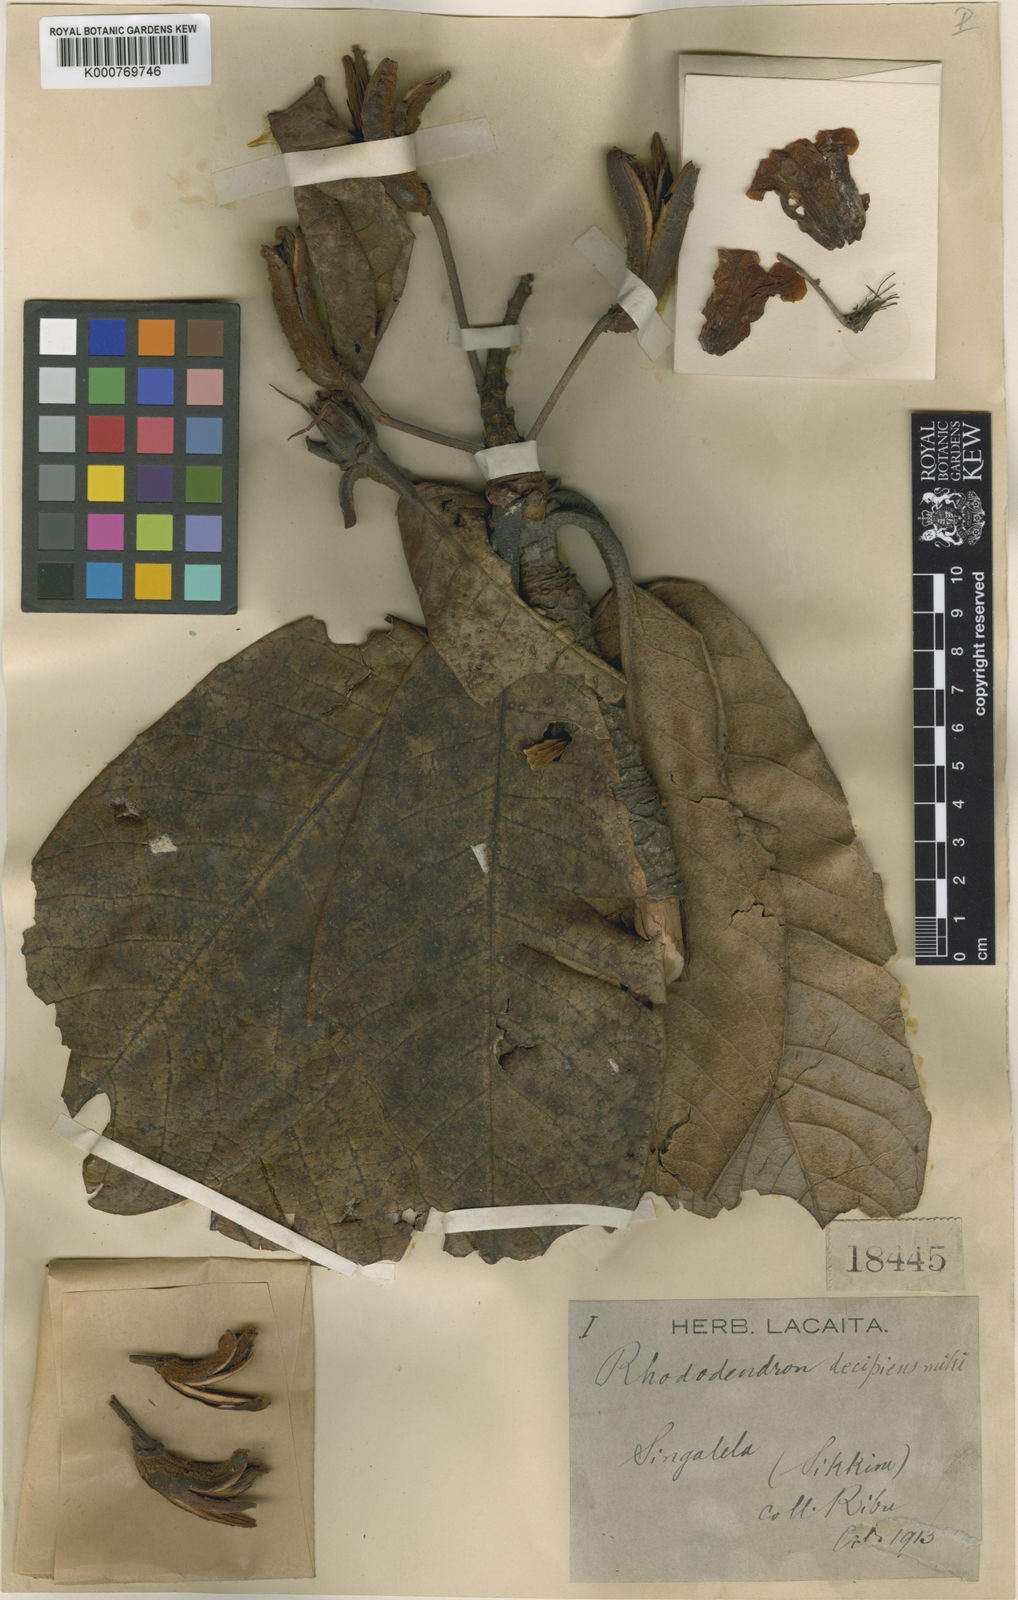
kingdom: Plantae
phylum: Tracheophyta
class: Magnoliopsida
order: Ericales
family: Ericaceae
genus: Rhododendron
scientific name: Rhododendron hodgsonii
